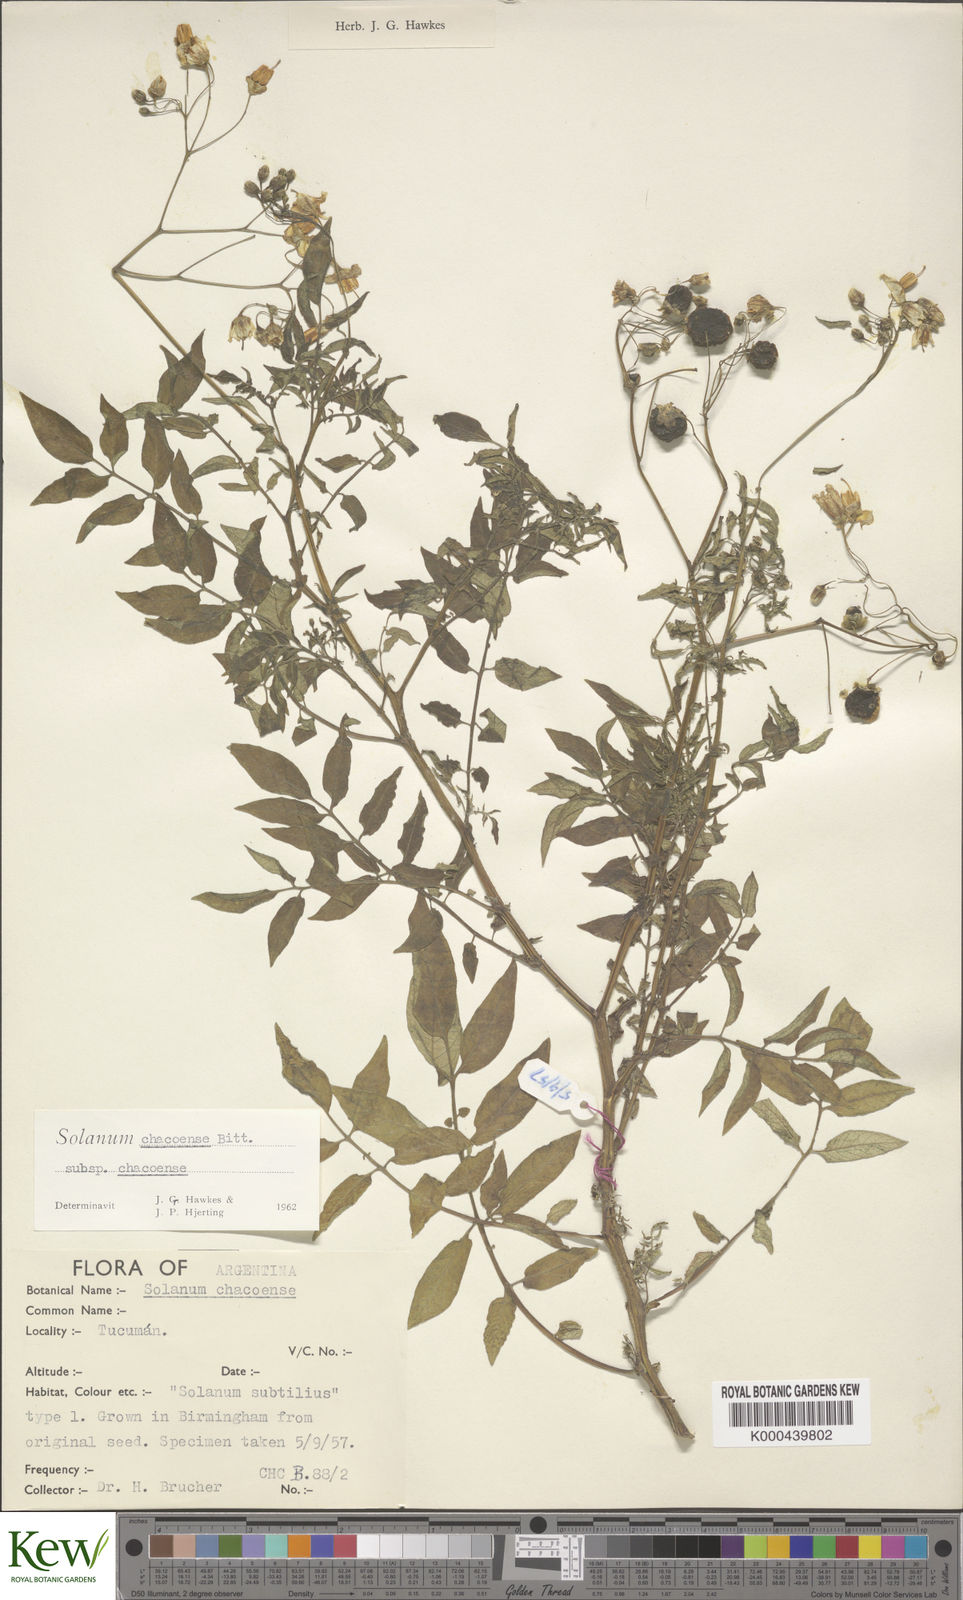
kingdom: Plantae
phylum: Tracheophyta
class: Magnoliopsida
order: Solanales
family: Solanaceae
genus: Solanum
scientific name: Solanum chacoense
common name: Chaco potato
